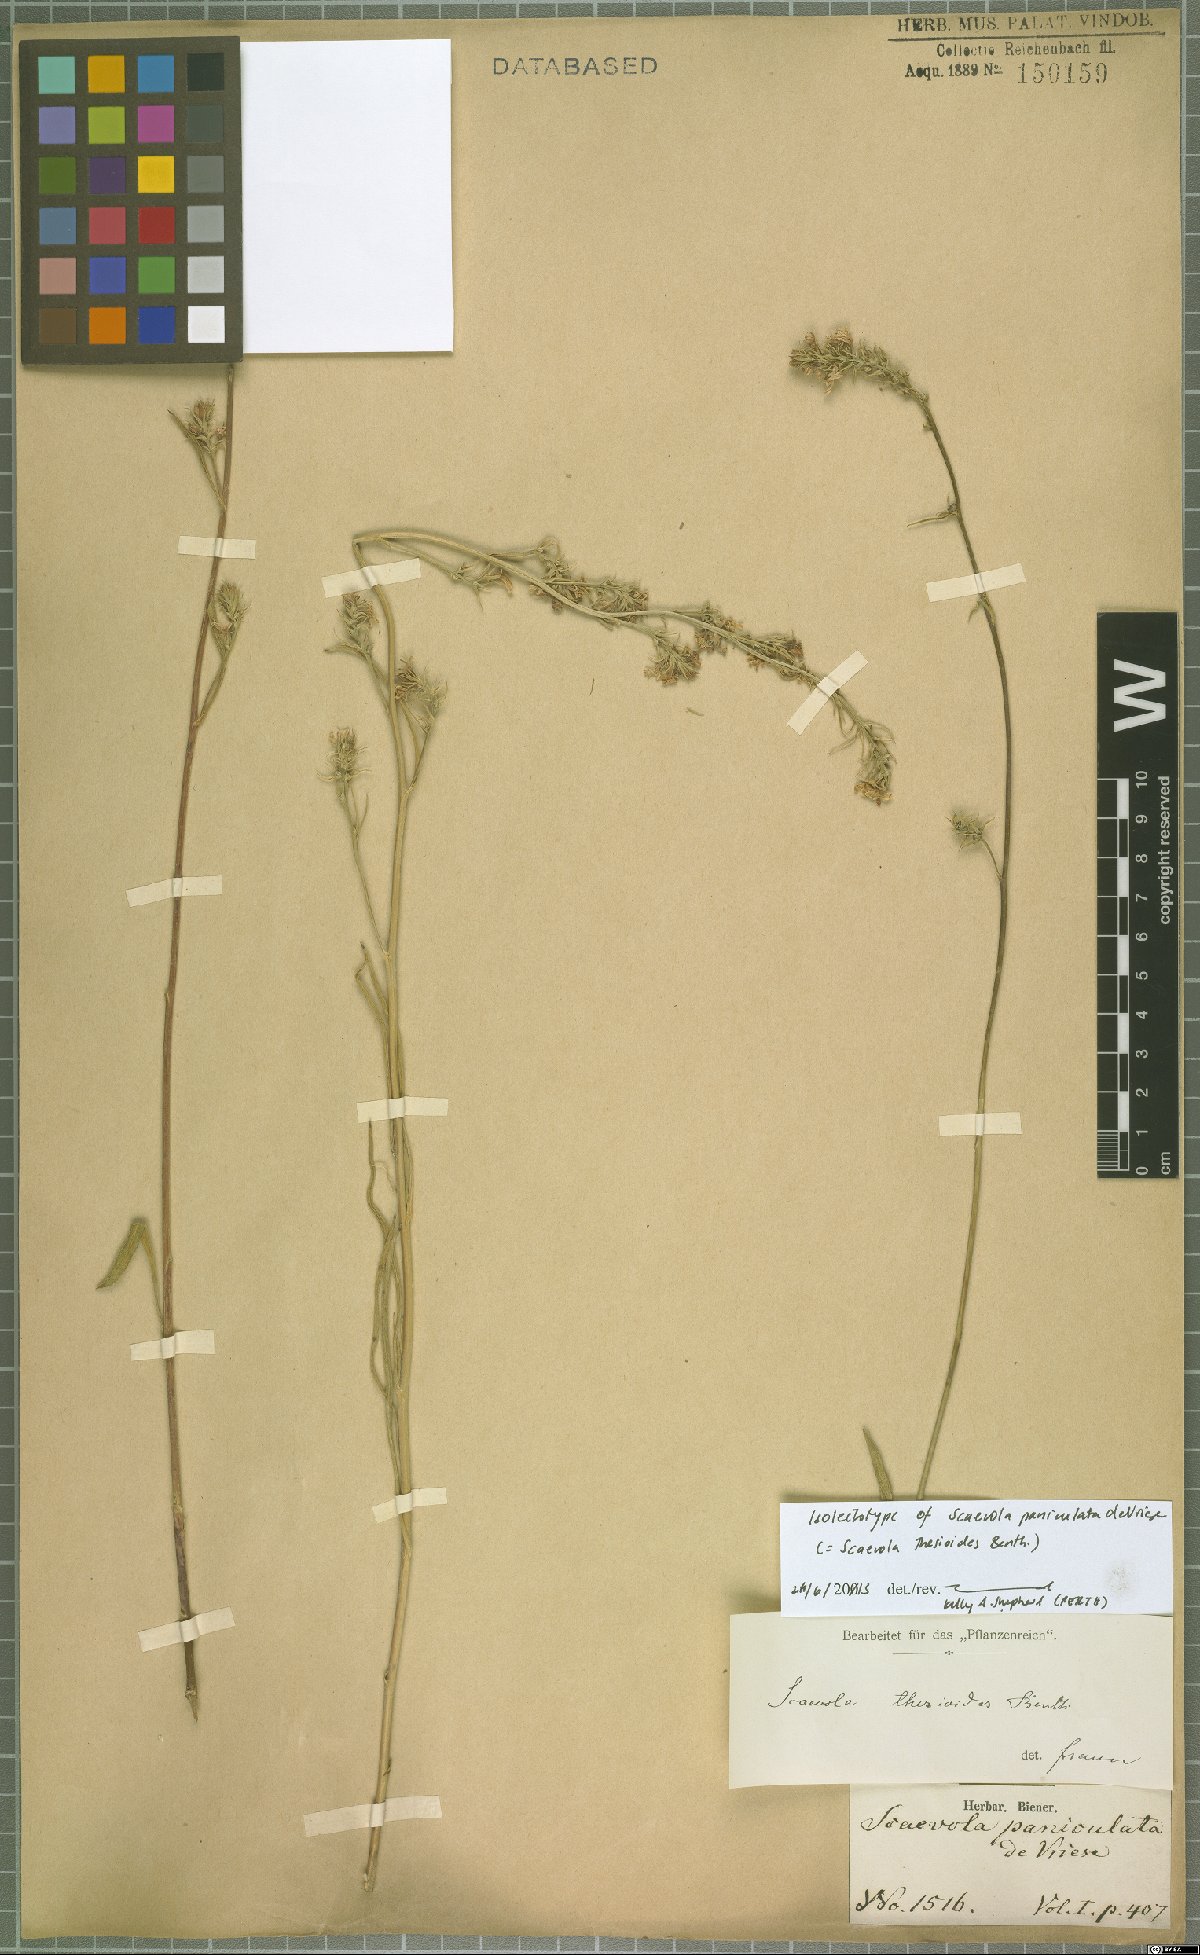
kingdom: Plantae
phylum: Tracheophyta
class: Magnoliopsida
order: Asterales
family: Goodeniaceae
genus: Scaevola
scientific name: Scaevola thesioides
